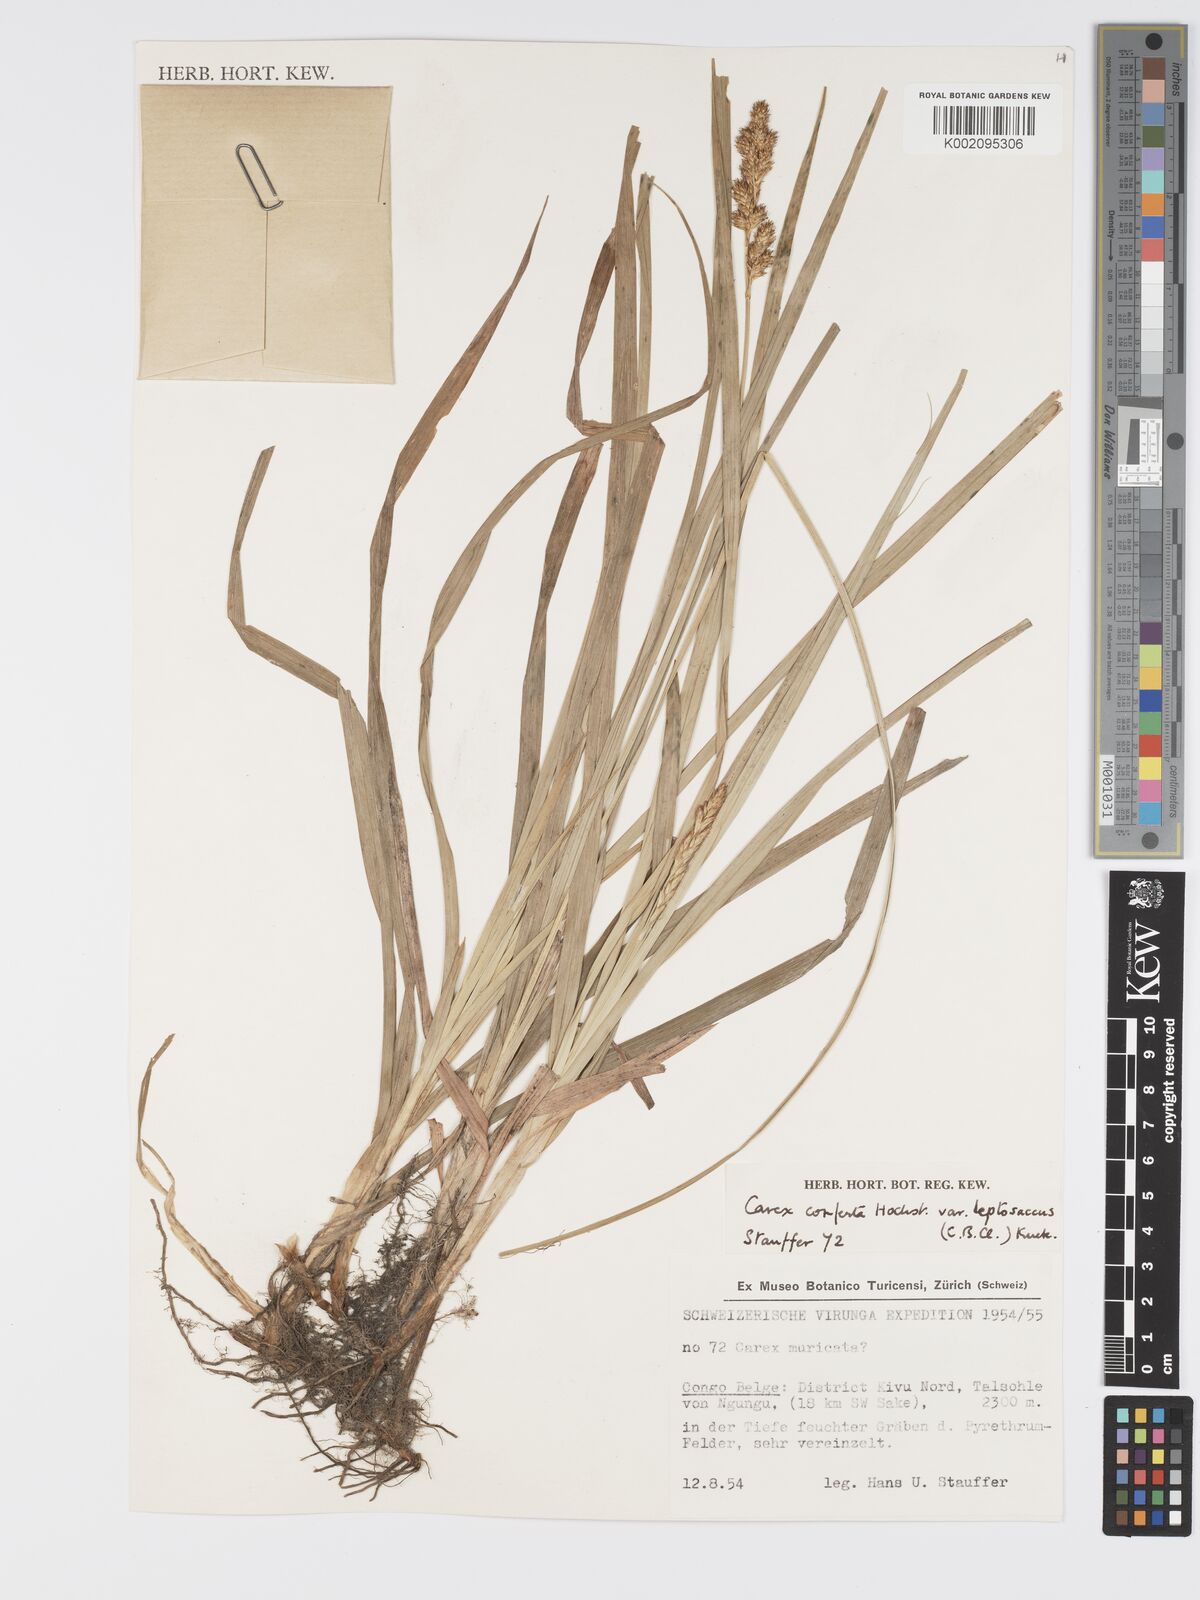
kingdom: Plantae
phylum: Tracheophyta
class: Liliopsida
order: Poales
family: Cyperaceae
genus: Carex
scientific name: Carex conferta
